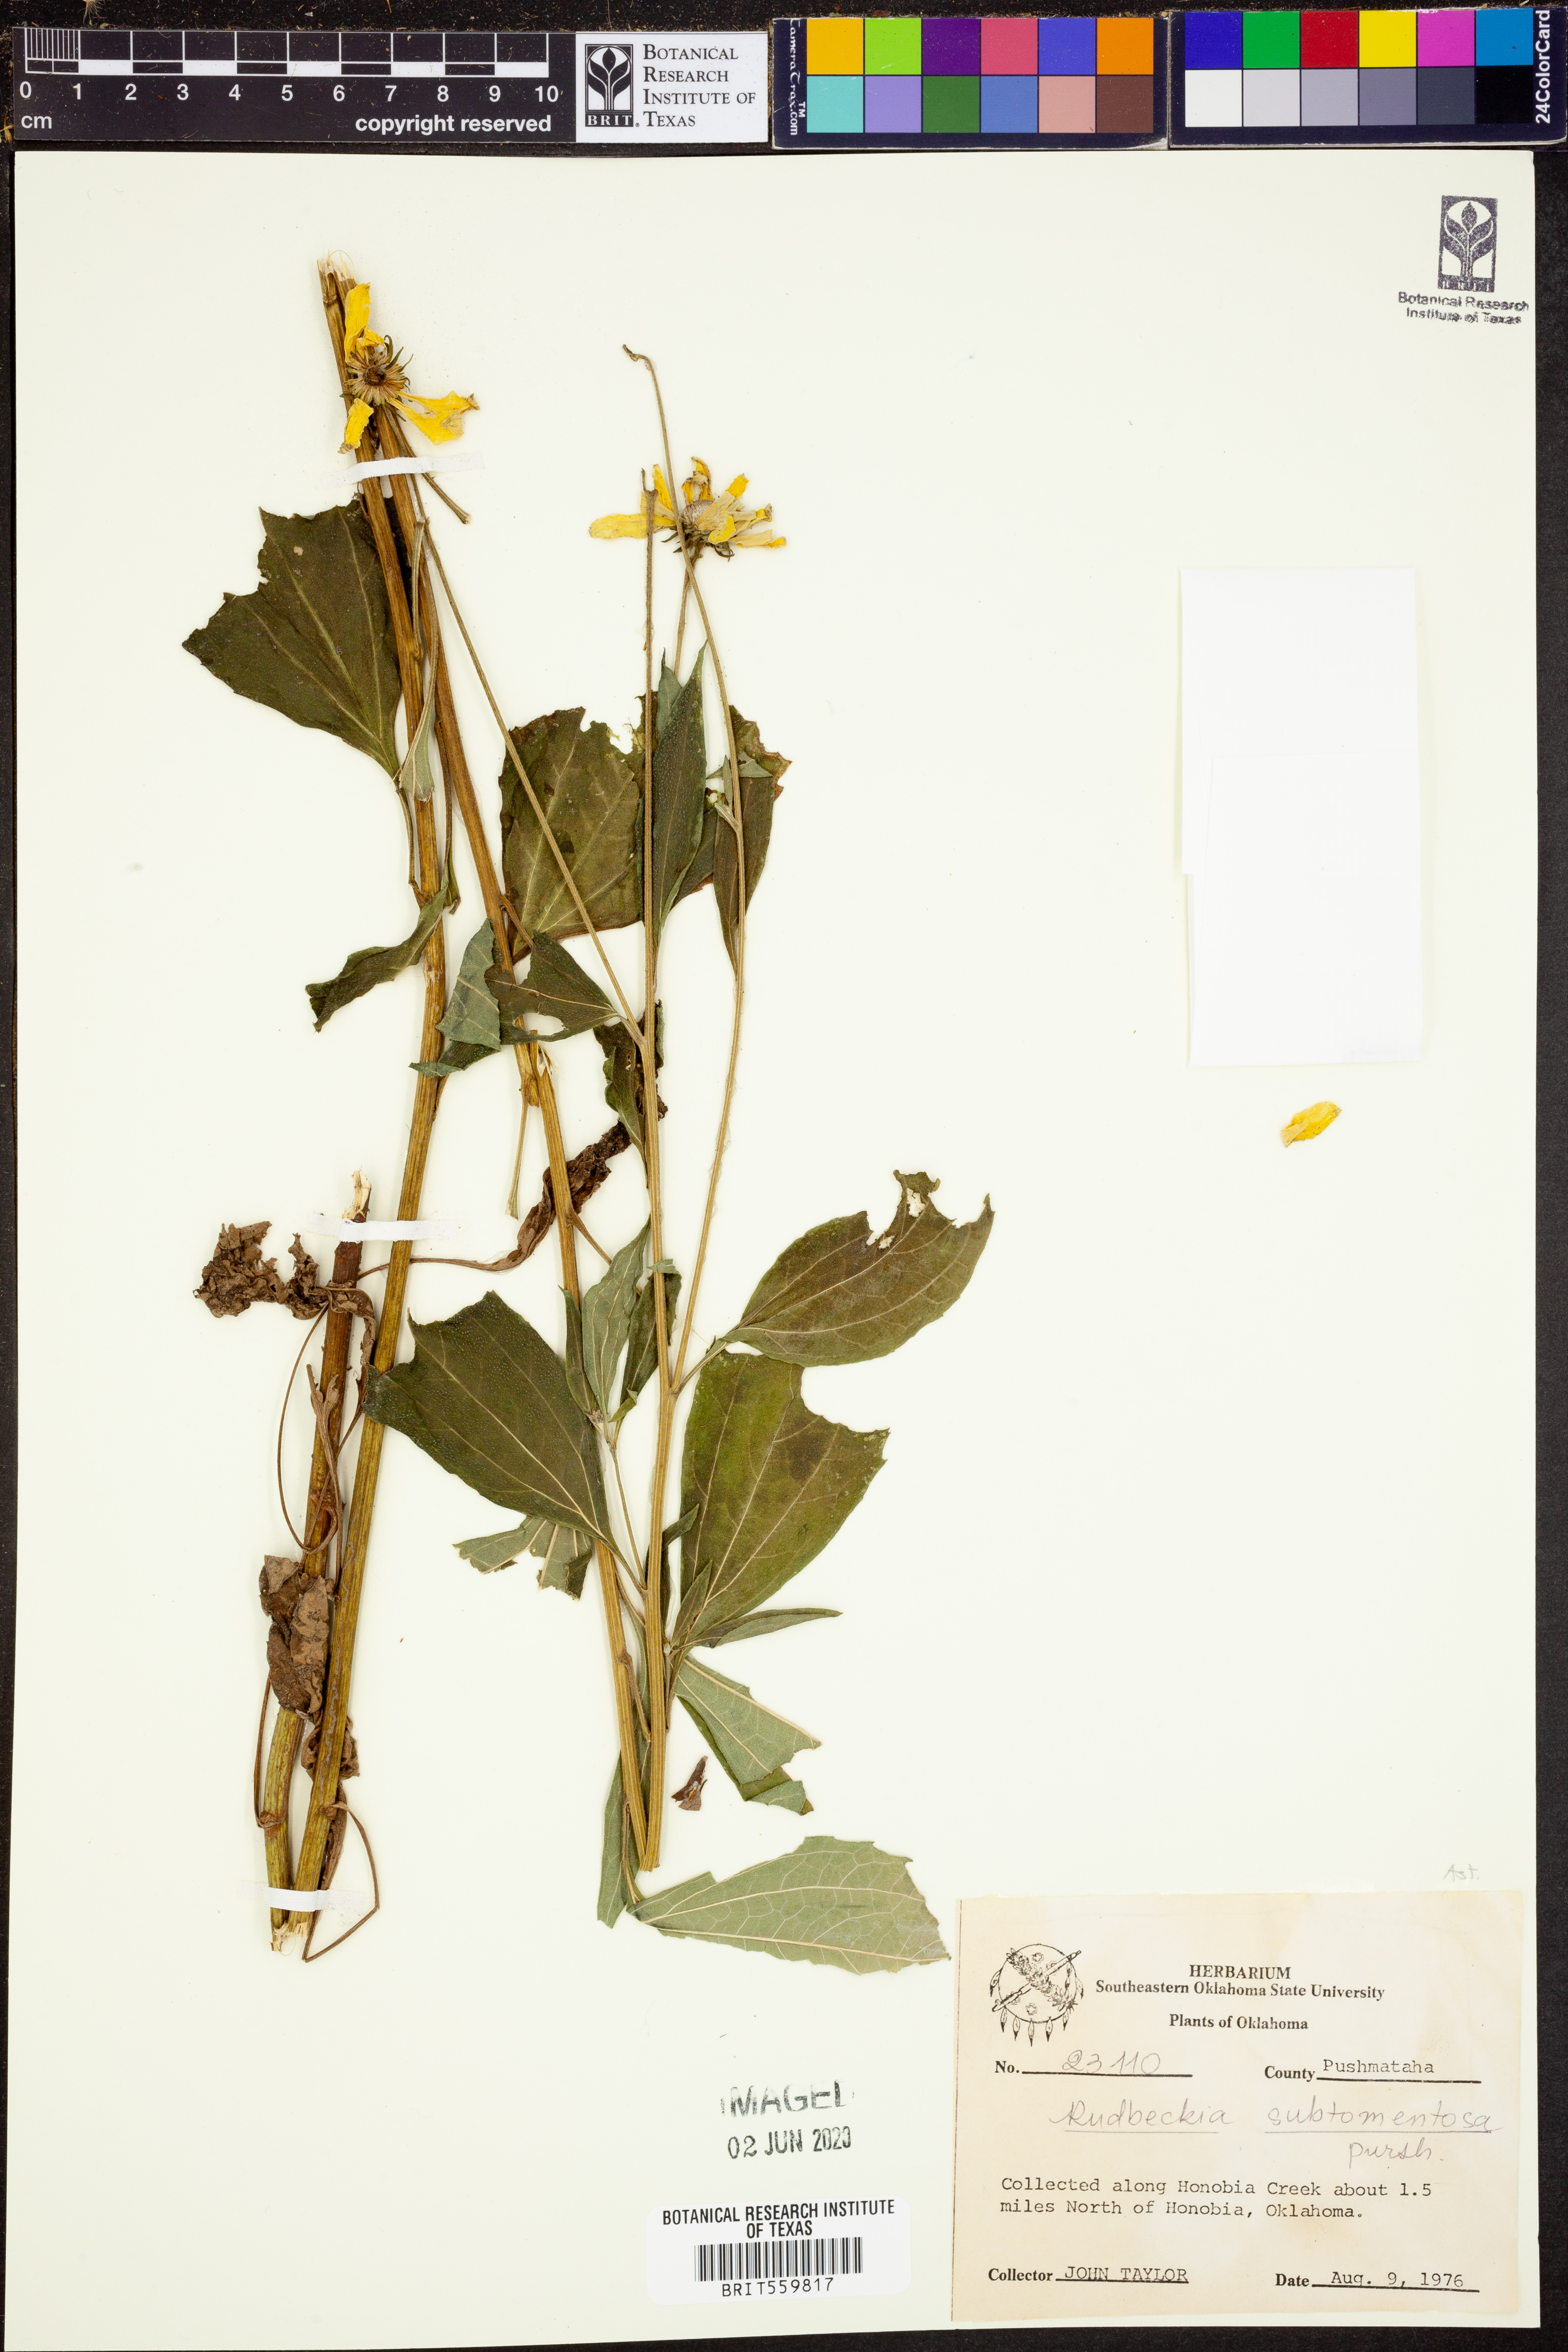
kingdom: Plantae
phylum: Tracheophyta
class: Magnoliopsida
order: Asterales
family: Asteraceae
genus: Rudbeckia
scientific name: Rudbeckia subtomentosa
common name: Sweet coneflower
